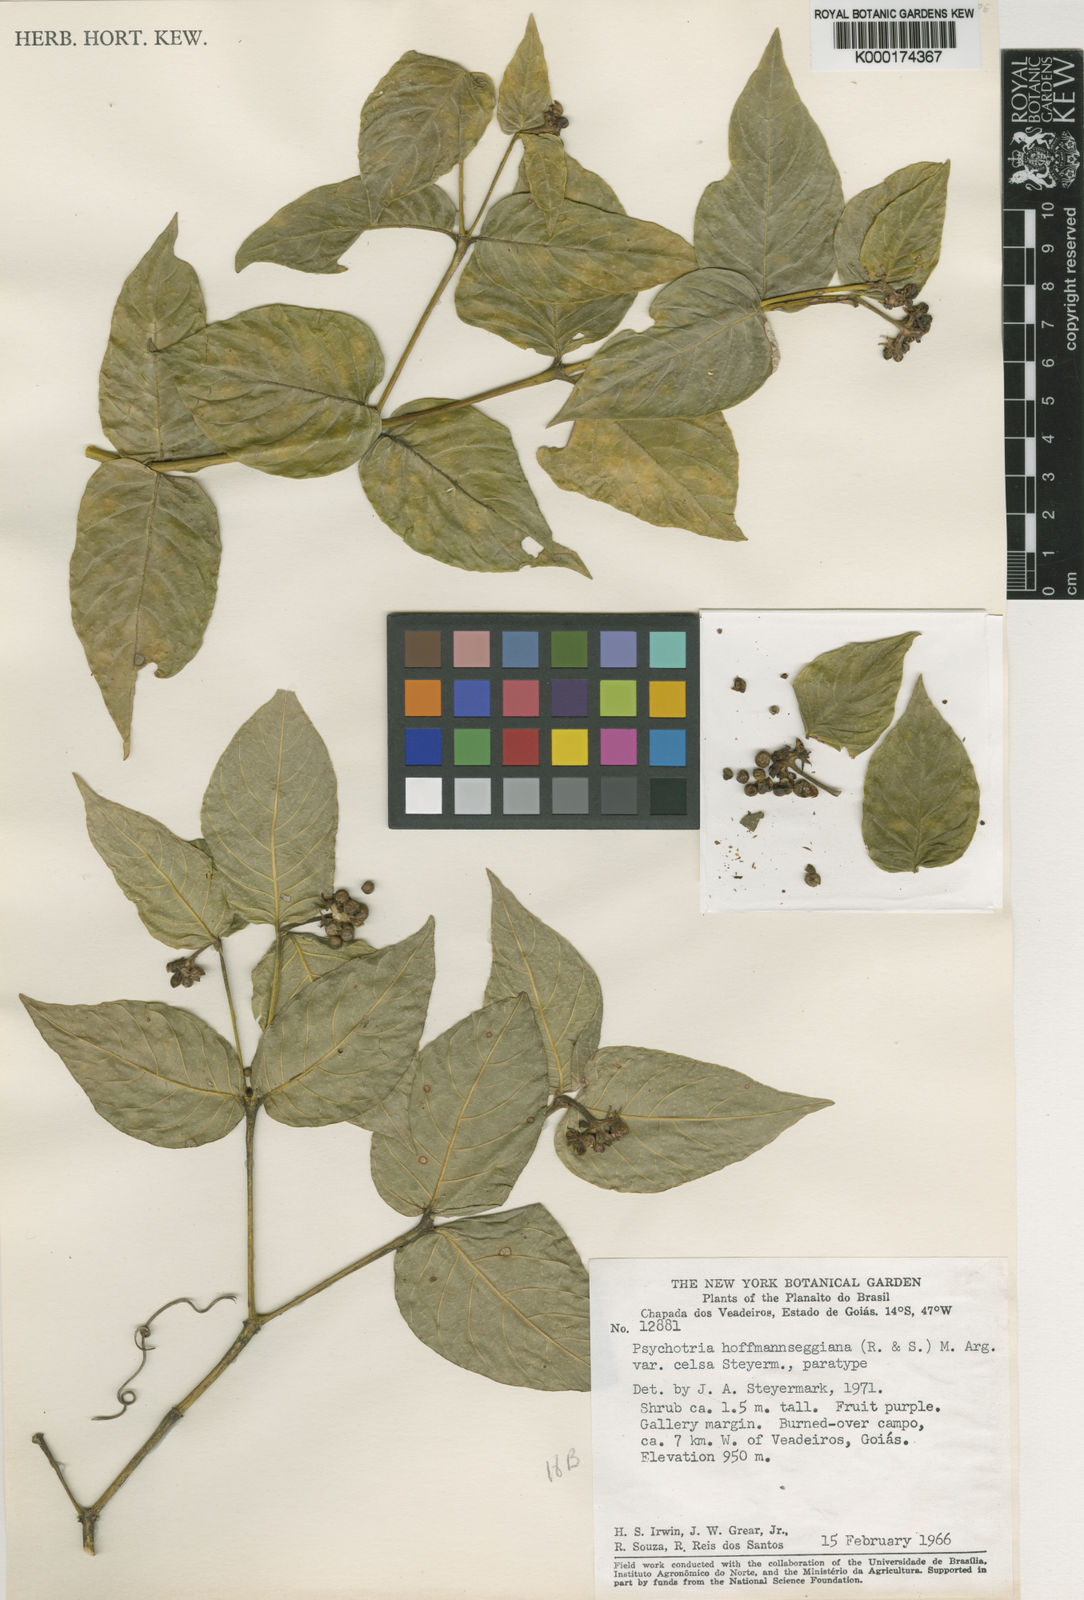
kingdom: Plantae
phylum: Tracheophyta
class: Magnoliopsida
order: Gentianales
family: Rubiaceae
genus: Psychotria
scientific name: Psychotria
